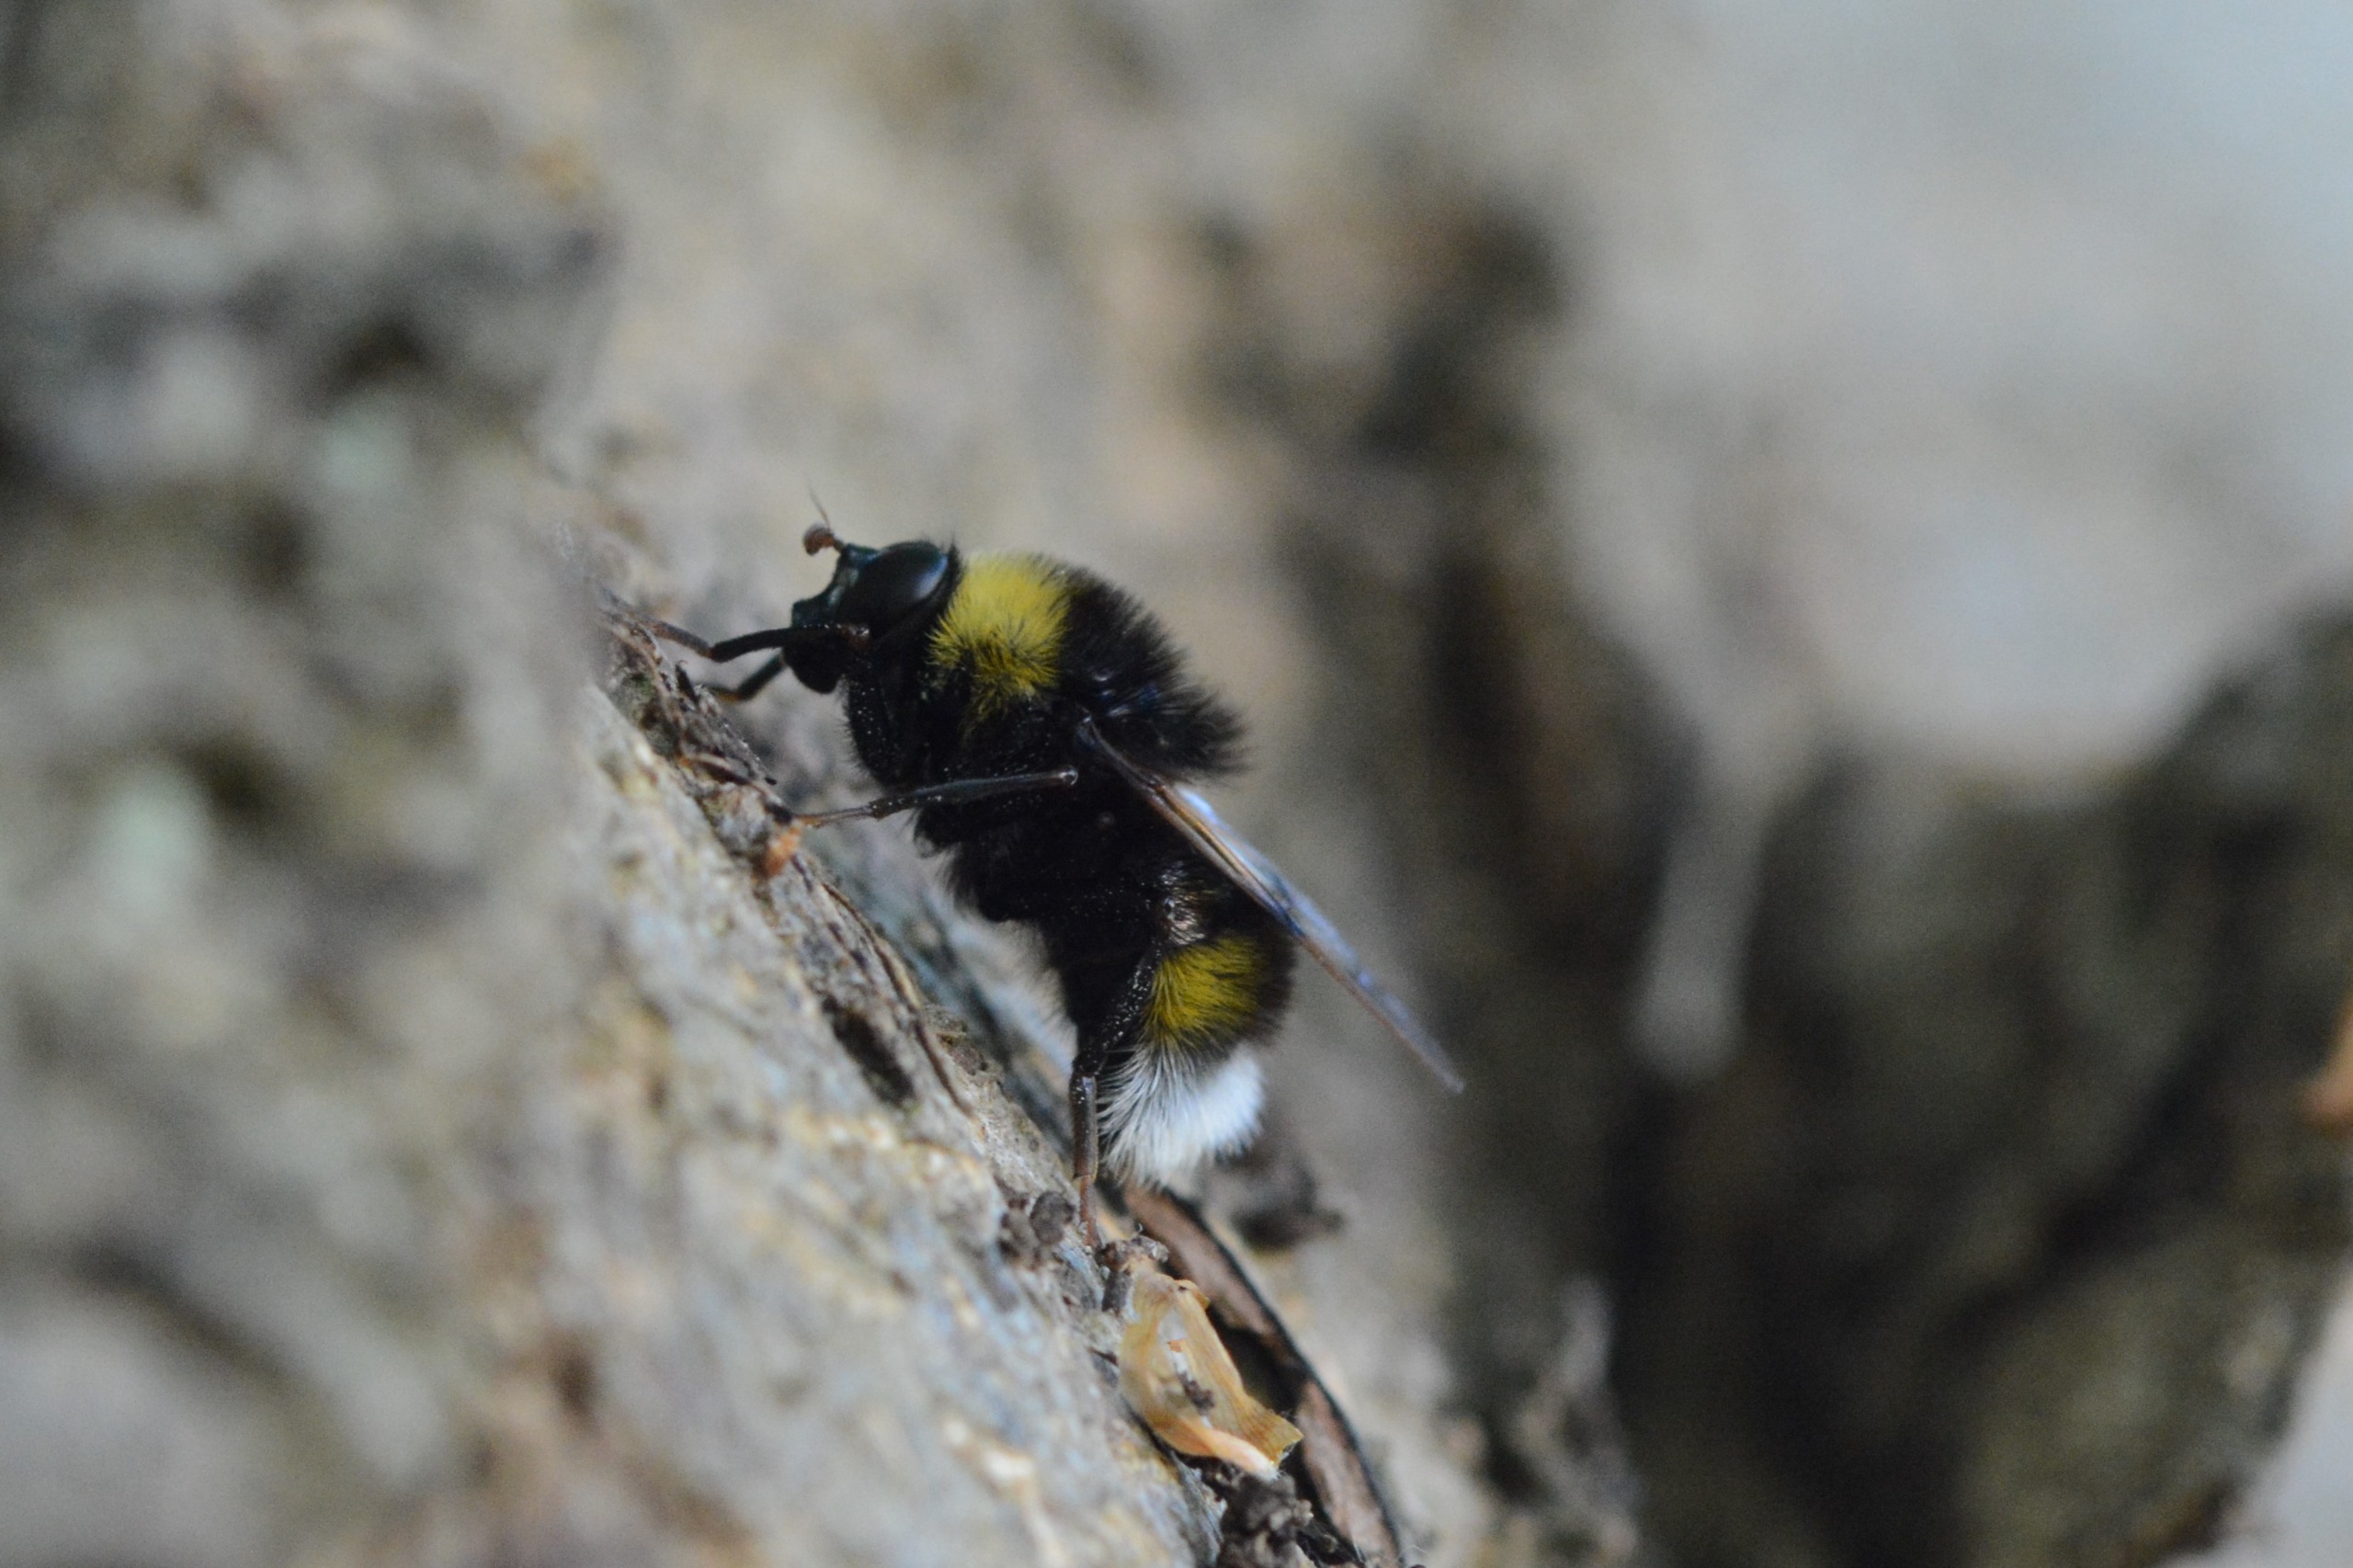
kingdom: Animalia
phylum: Arthropoda
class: Insecta
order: Diptera
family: Syrphidae
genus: Pocota
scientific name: Pocota personata
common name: Jordhumle-svirreflue
